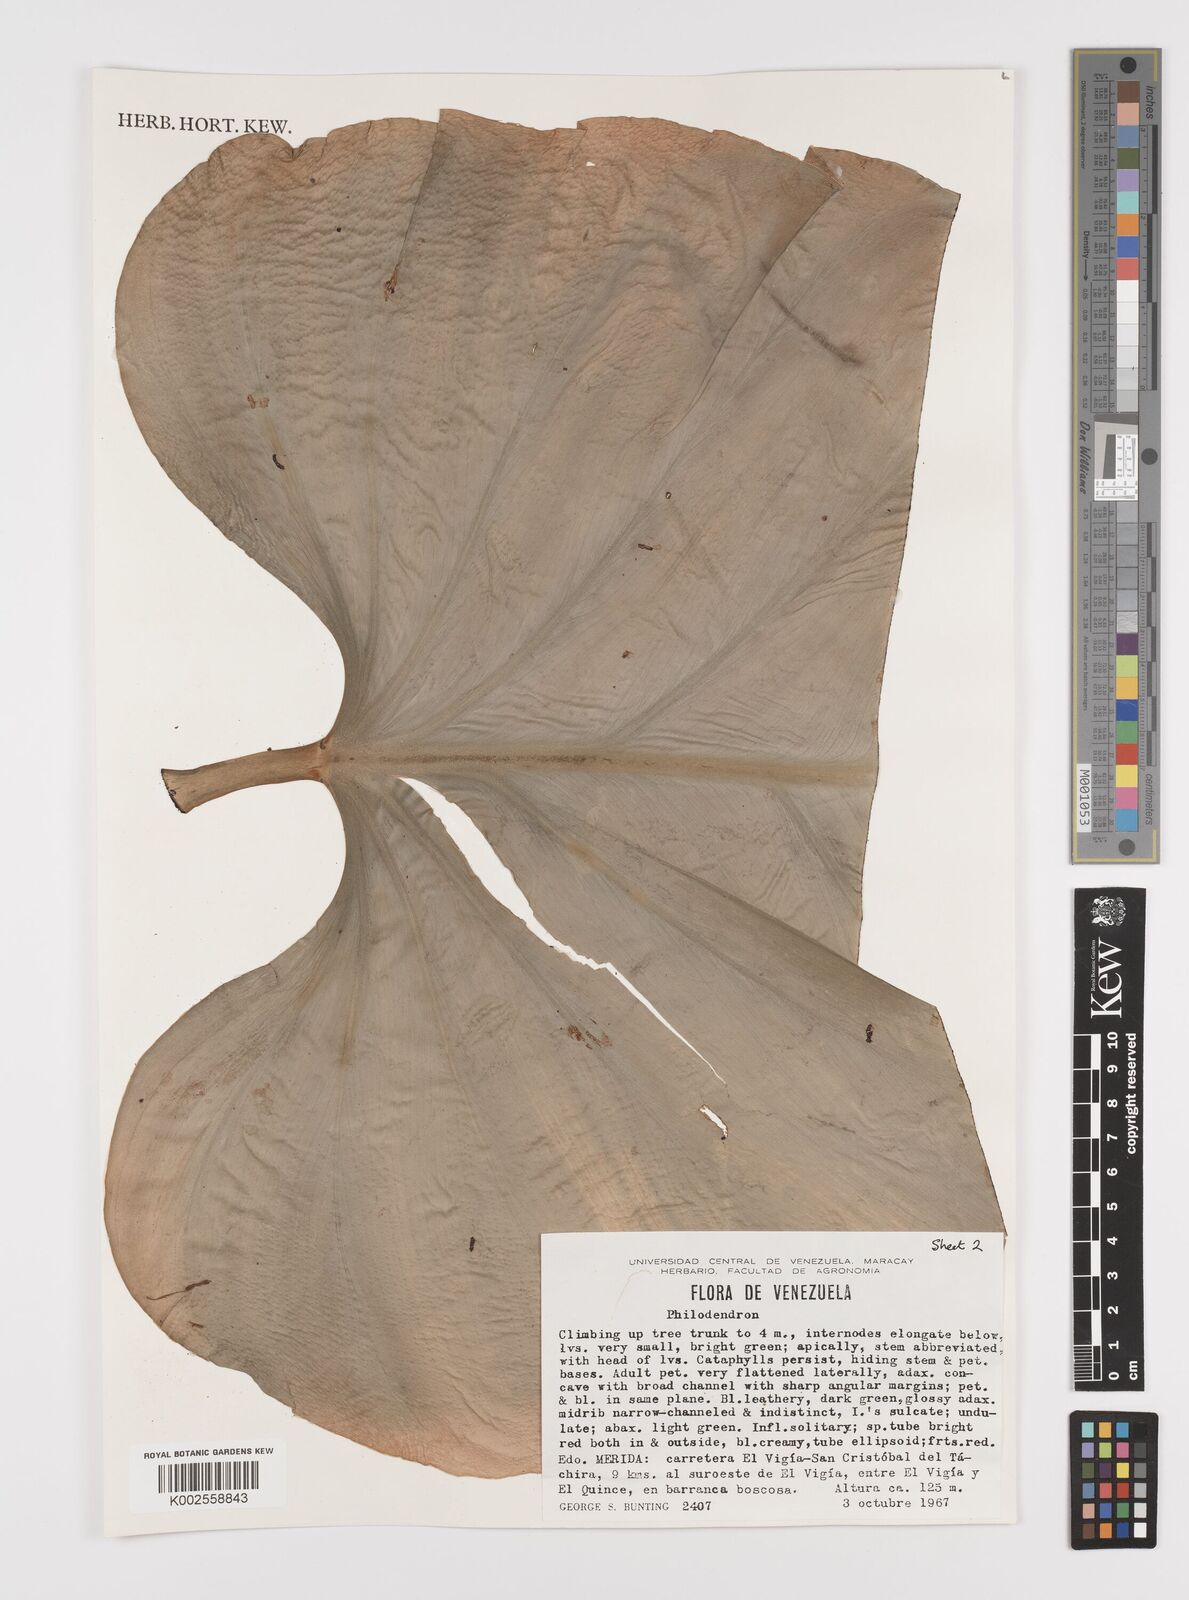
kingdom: Plantae
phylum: Tracheophyta
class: Liliopsida
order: Alismatales
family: Araceae
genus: Philodendron
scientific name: Philodendron fragrantissimum
